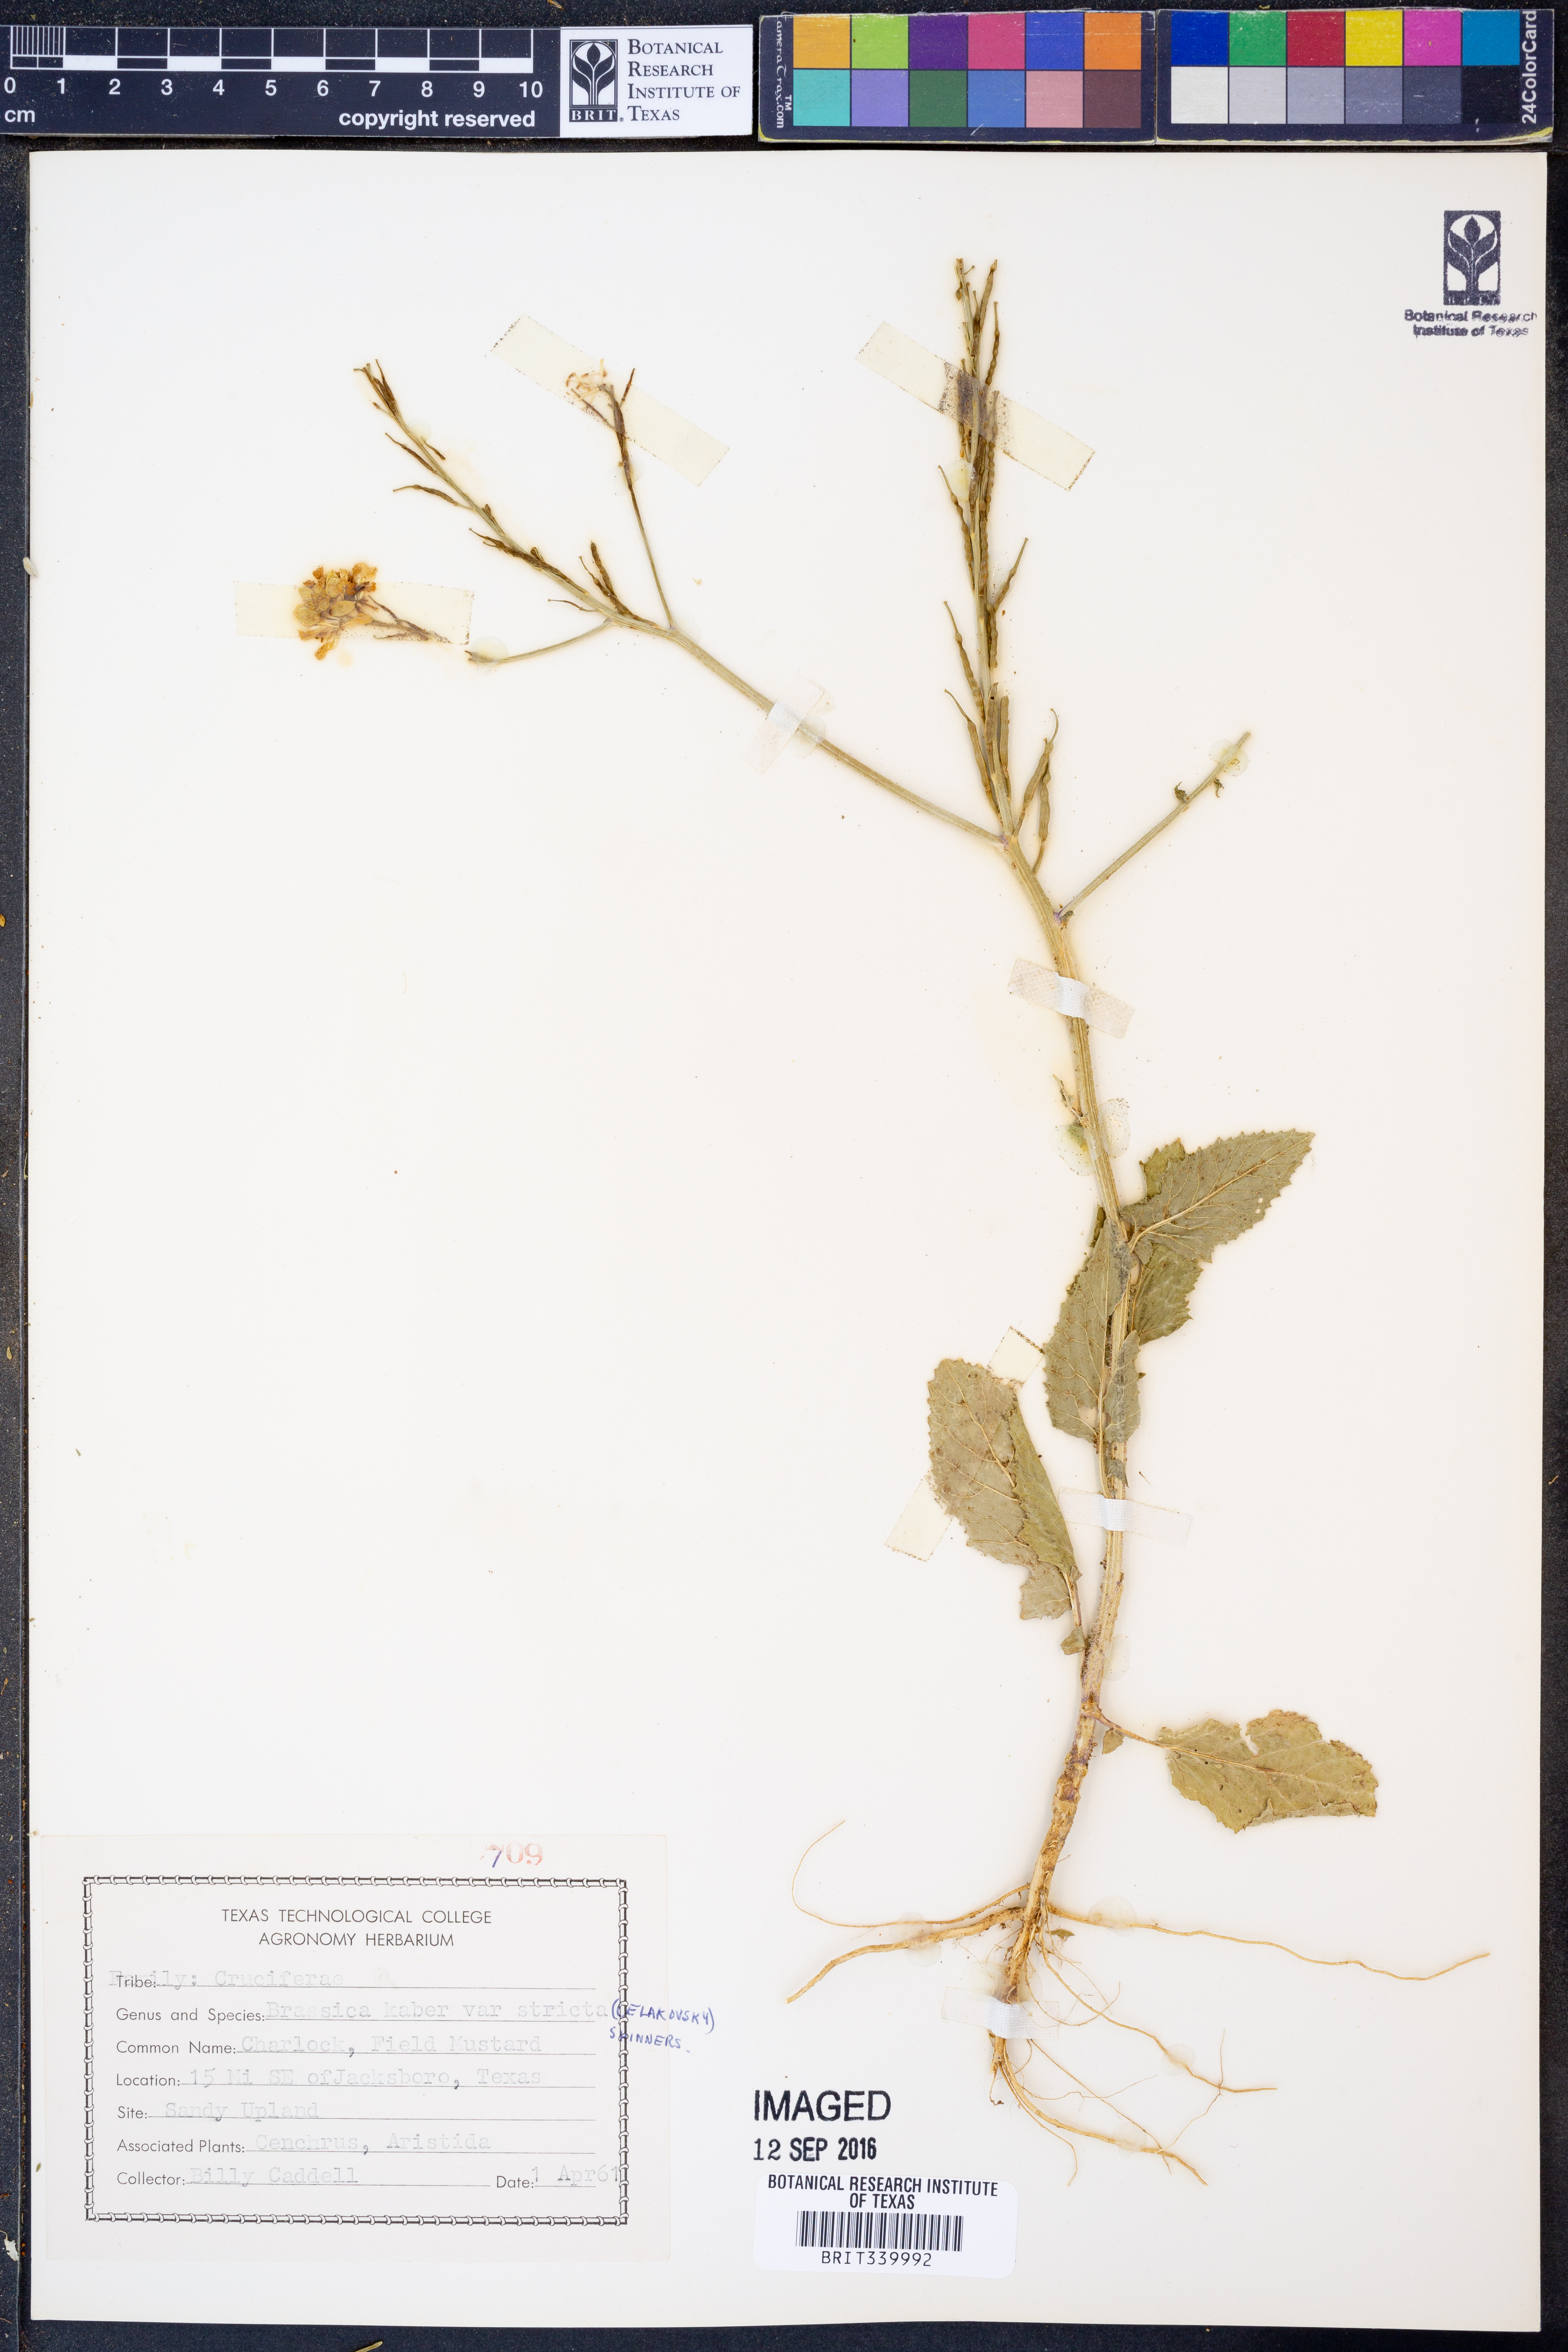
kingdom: Plantae
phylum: Tracheophyta
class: Magnoliopsida
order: Brassicales
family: Brassicaceae
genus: Sinapis
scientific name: Sinapis arvensis
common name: Charlock
